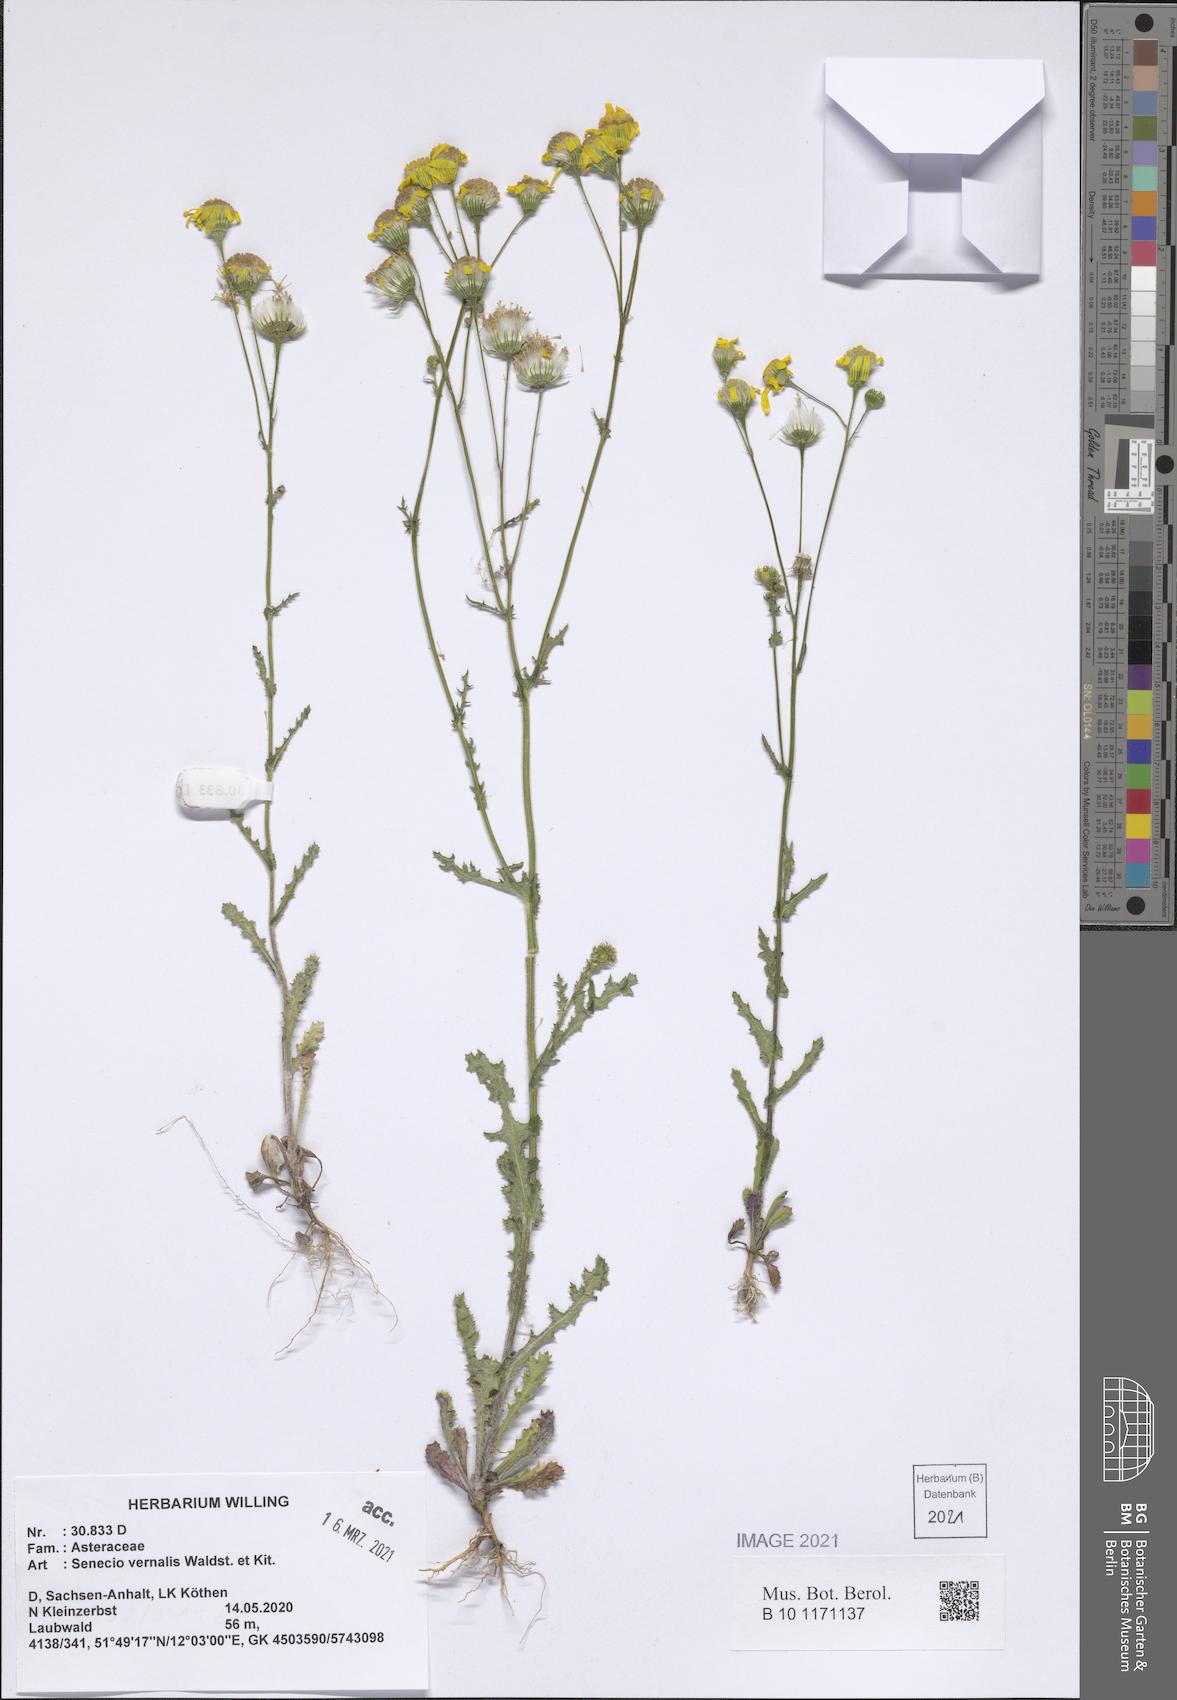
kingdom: Plantae
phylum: Tracheophyta
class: Magnoliopsida
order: Asterales
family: Asteraceae
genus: Senecio
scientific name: Senecio vernalis
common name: Eastern groundsel
